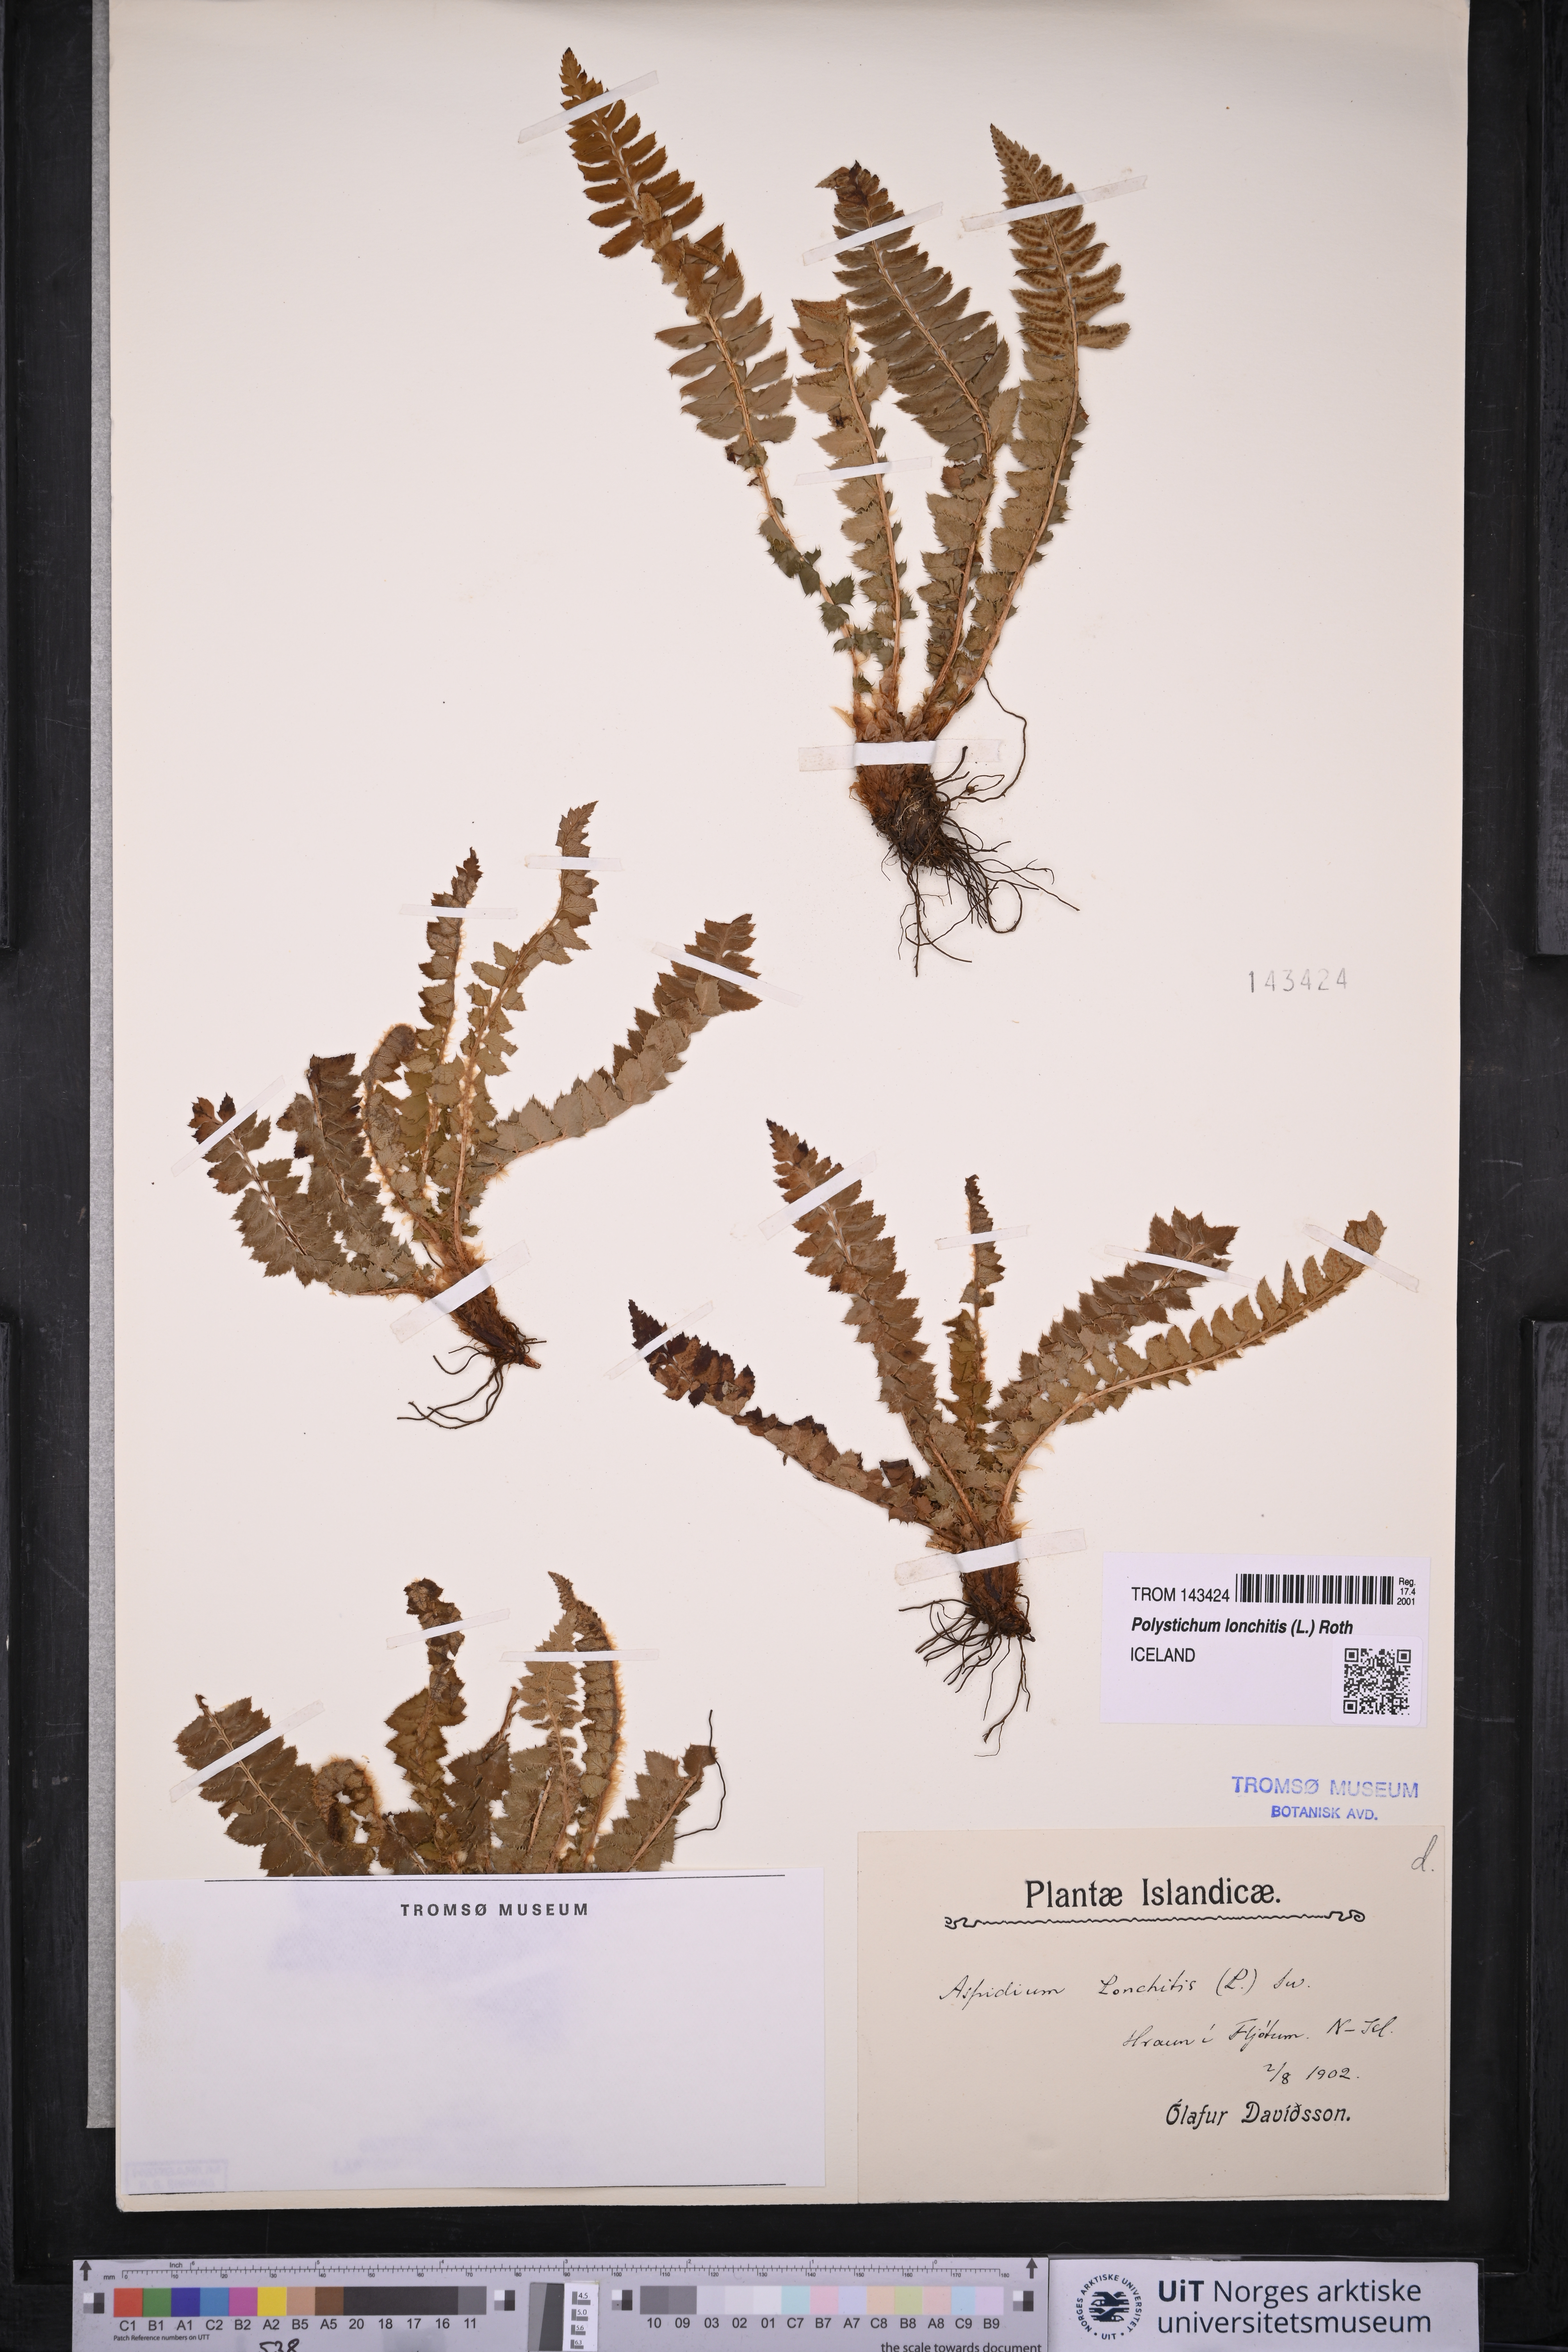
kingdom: Plantae
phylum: Tracheophyta
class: Polypodiopsida
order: Polypodiales
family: Dryopteridaceae
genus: Polystichum
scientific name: Polystichum lonchitis
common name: Holly fern
